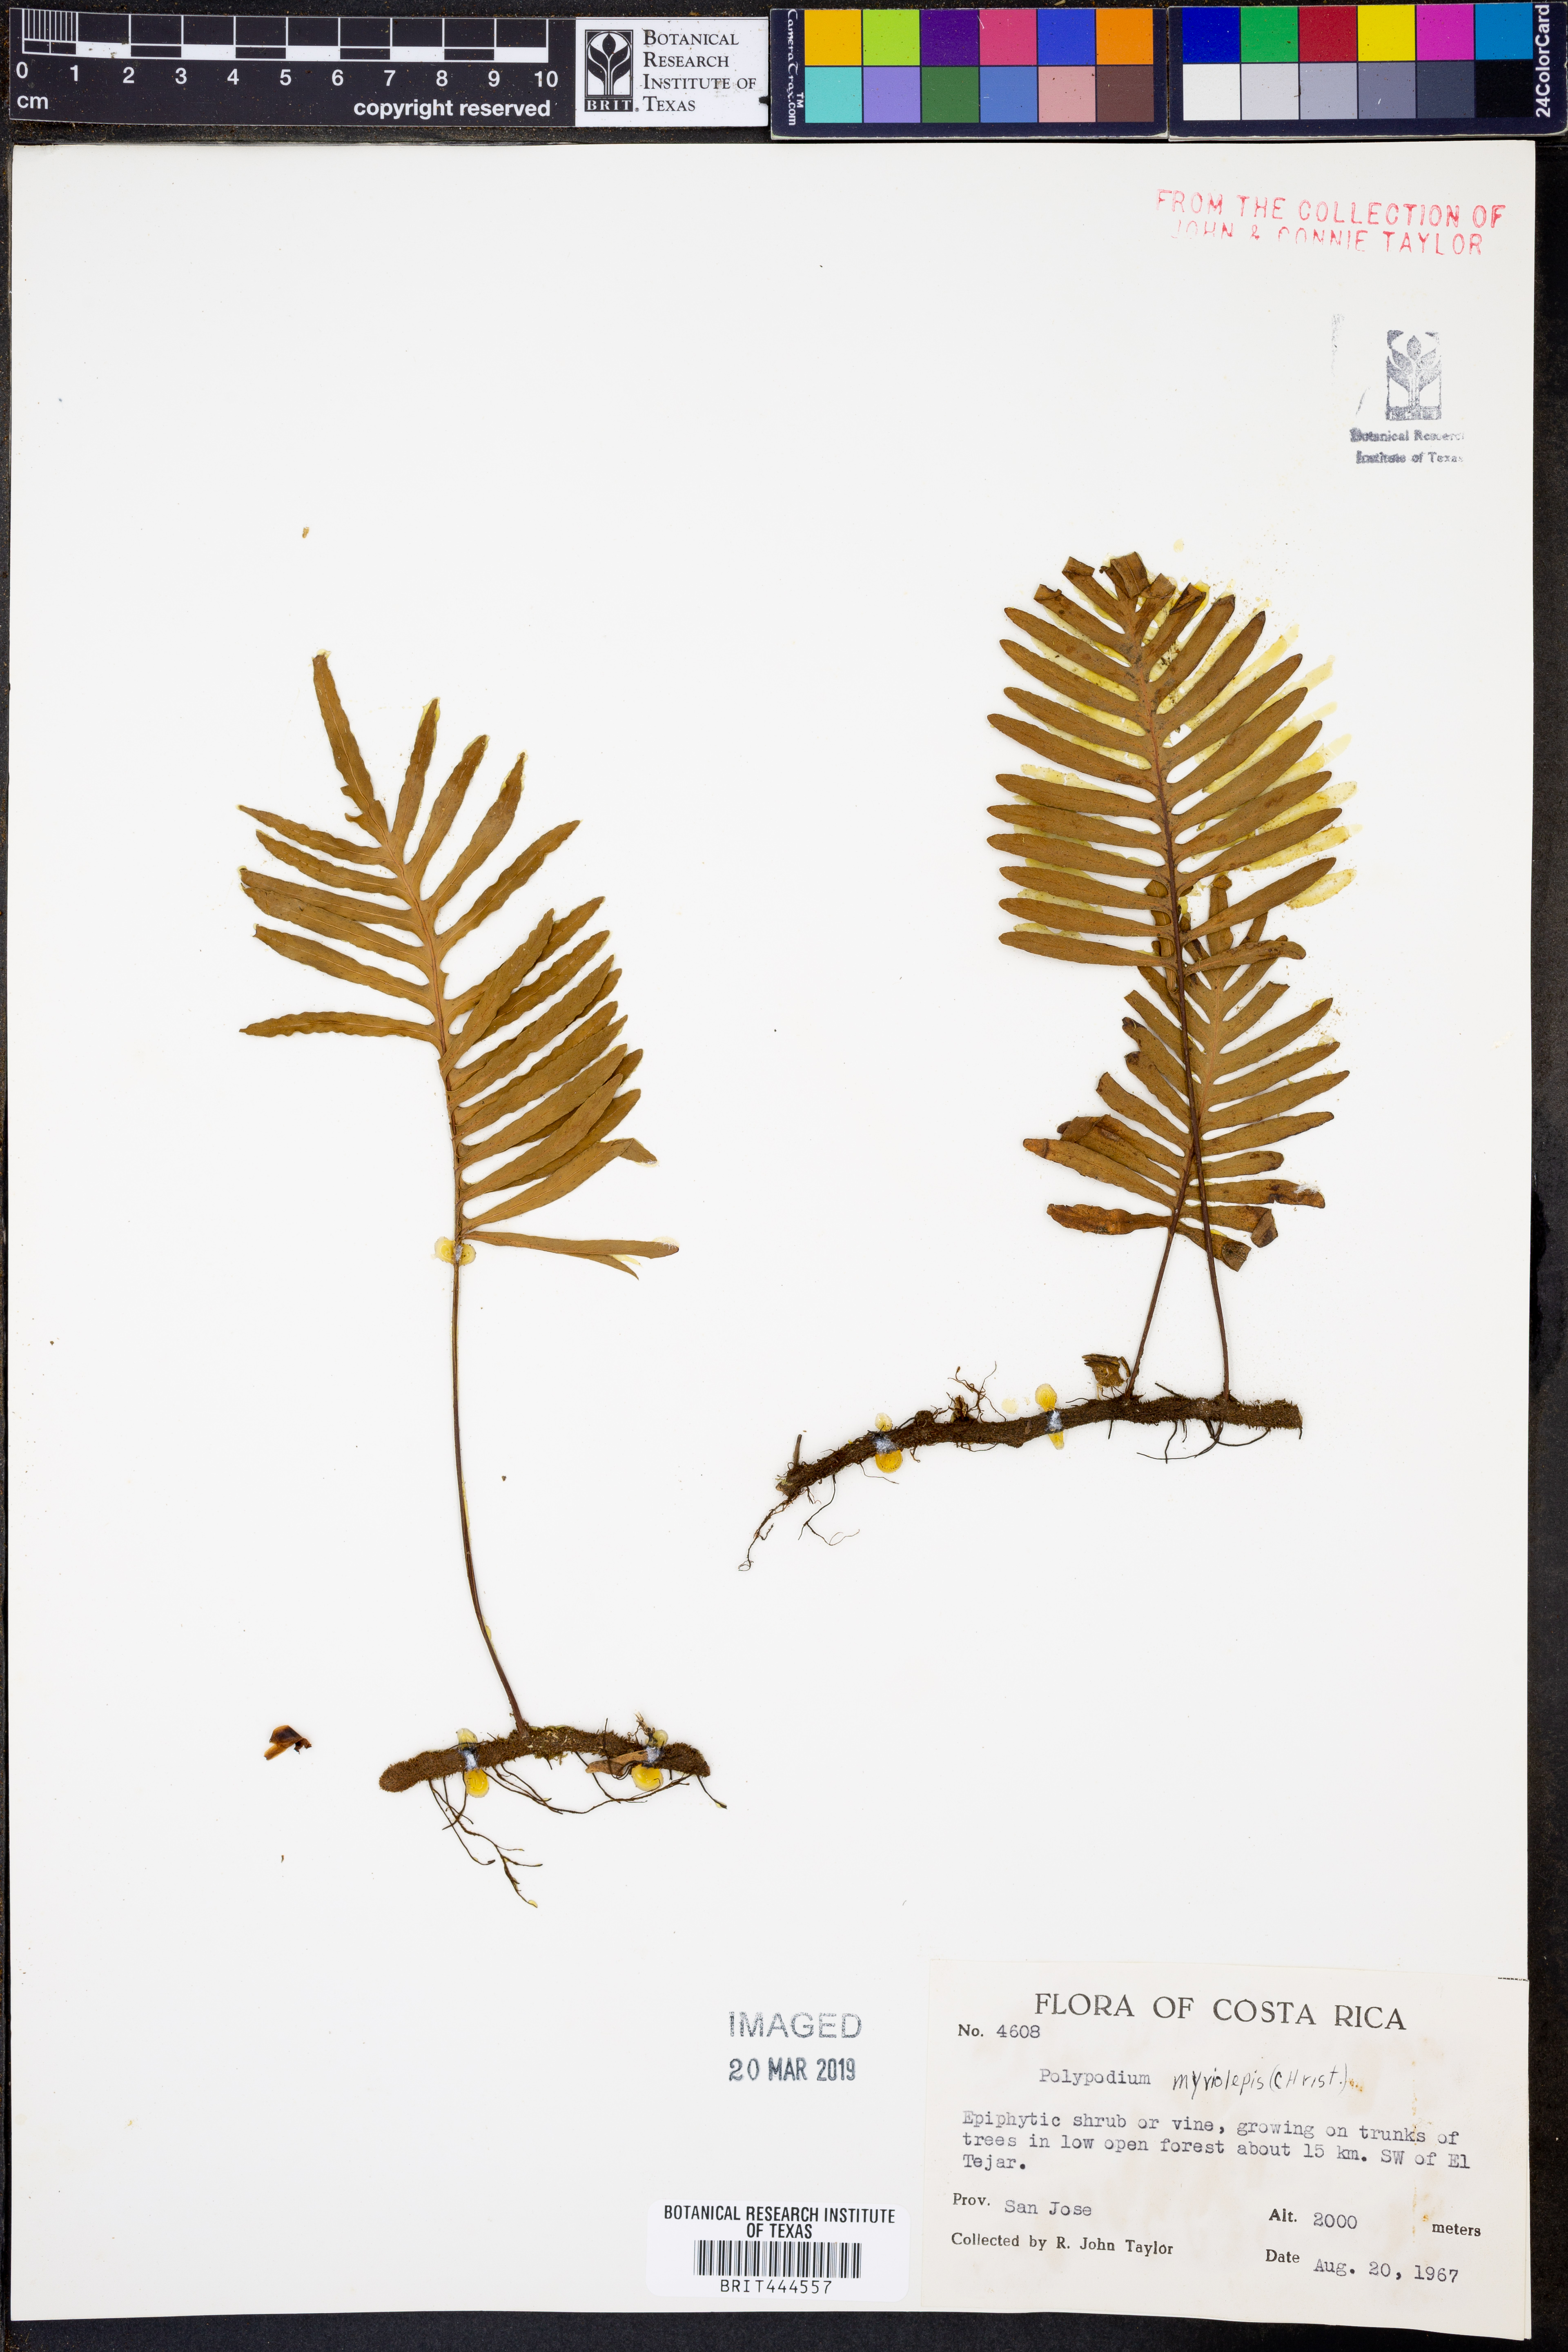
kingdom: Plantae
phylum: Tracheophyta
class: Polypodiopsida
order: Polypodiales
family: Polypodiaceae
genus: Pleopeltis
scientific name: Pleopeltis myriolepis
